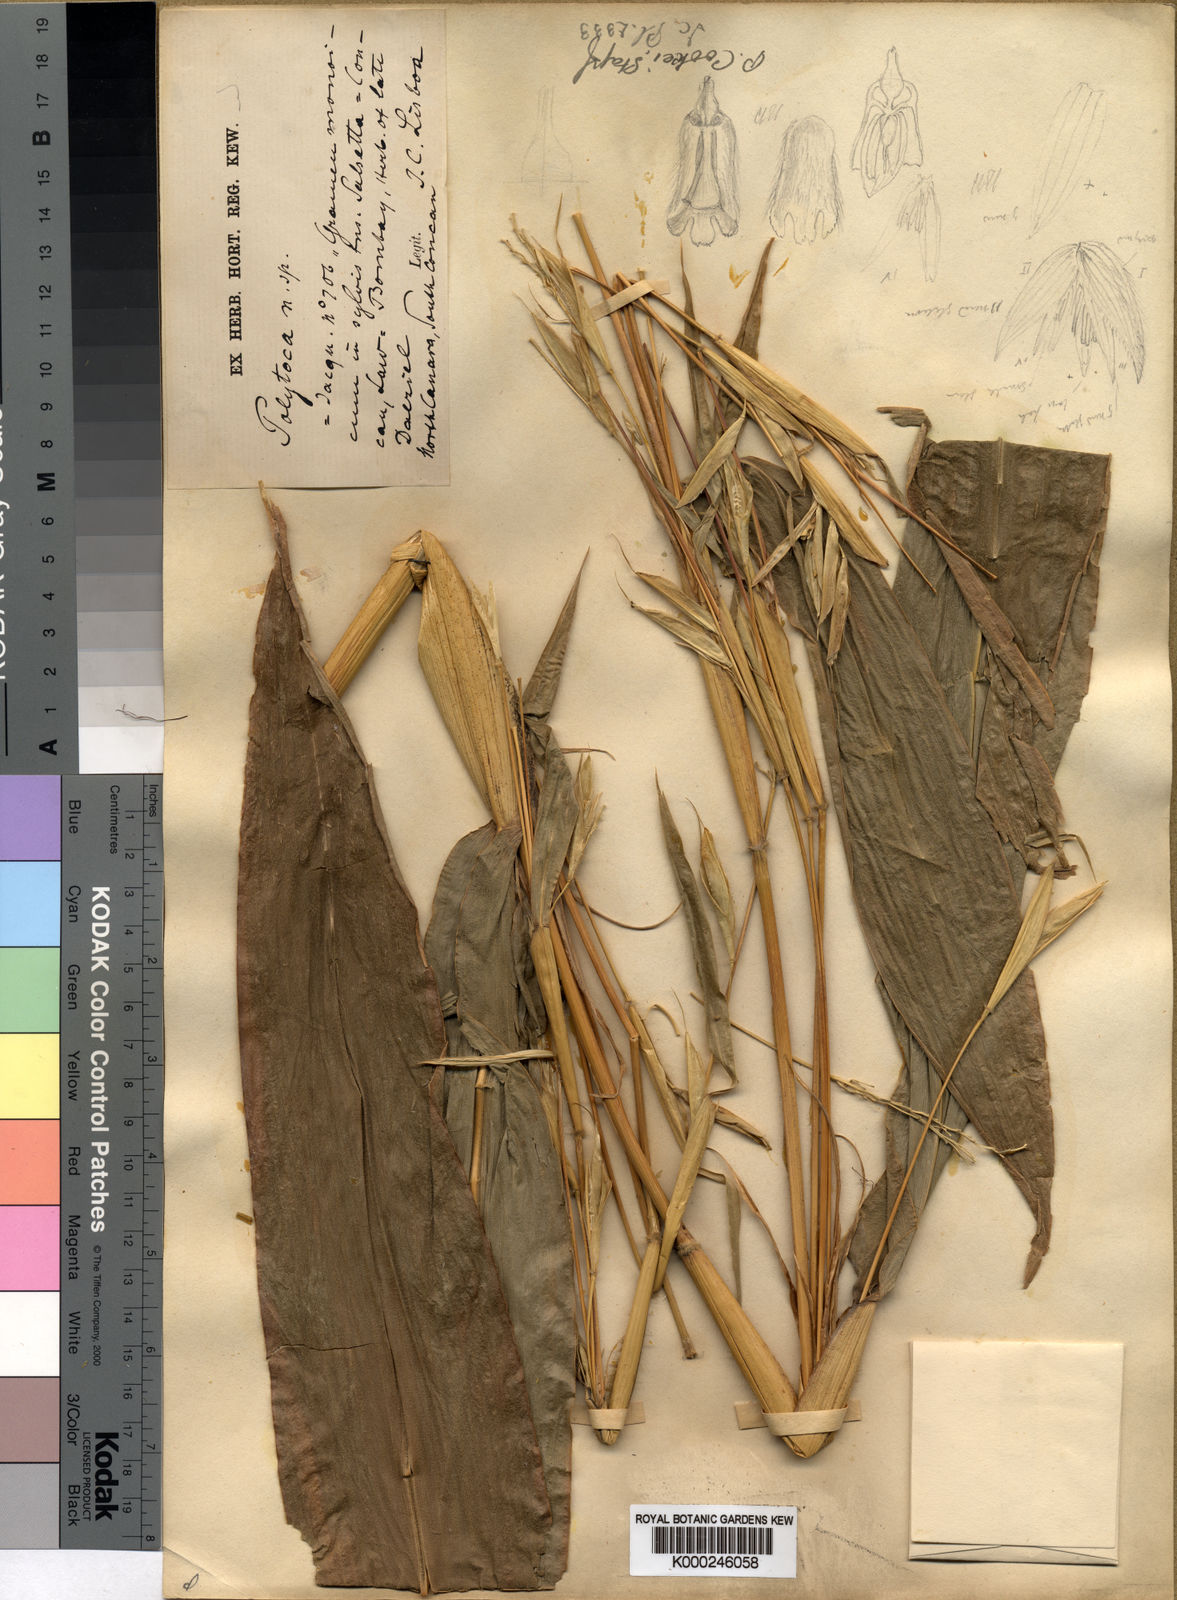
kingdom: Plantae
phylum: Tracheophyta
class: Liliopsida
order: Poales
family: Poaceae
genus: Trilobachne
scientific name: Trilobachne cookei
